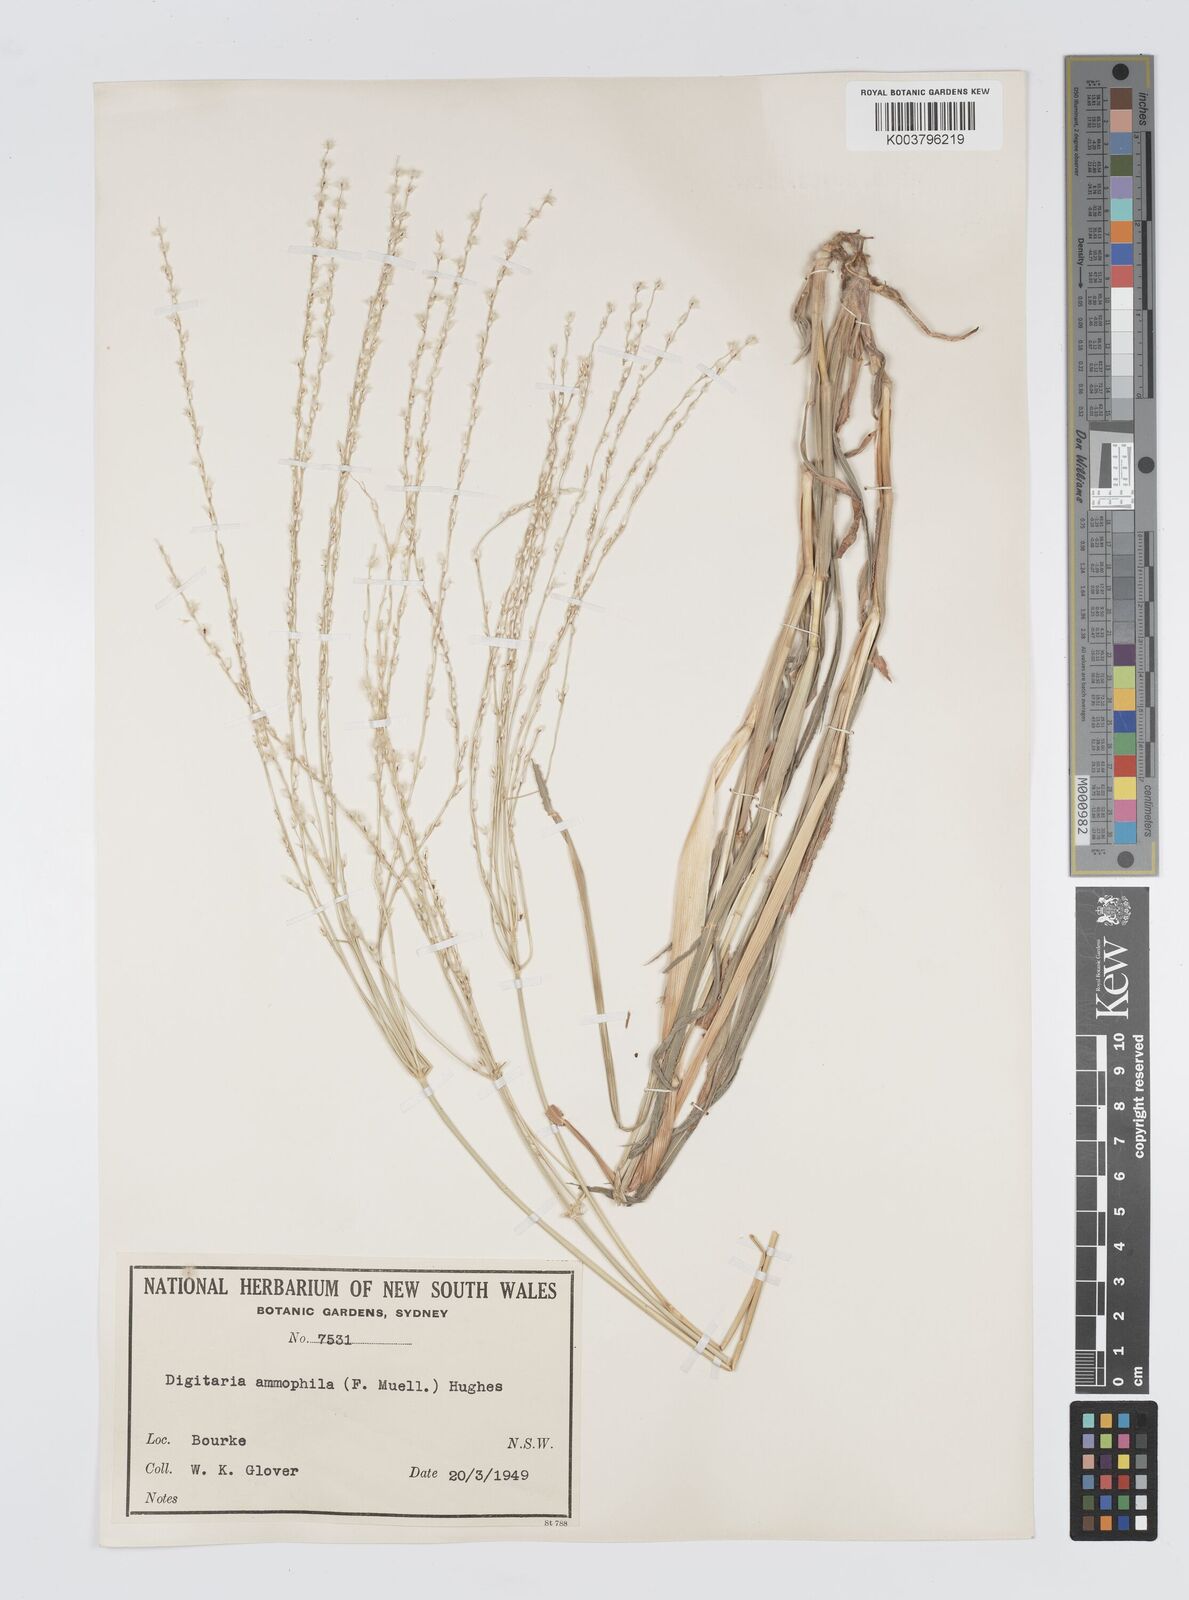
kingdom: Plantae
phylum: Tracheophyta
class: Liliopsida
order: Poales
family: Poaceae
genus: Digitaria
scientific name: Digitaria ammophila
